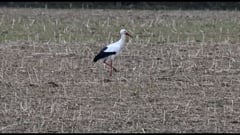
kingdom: Animalia
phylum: Chordata
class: Aves
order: Ciconiiformes
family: Ciconiidae
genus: Ciconia
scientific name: Ciconia ciconia
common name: White stork
